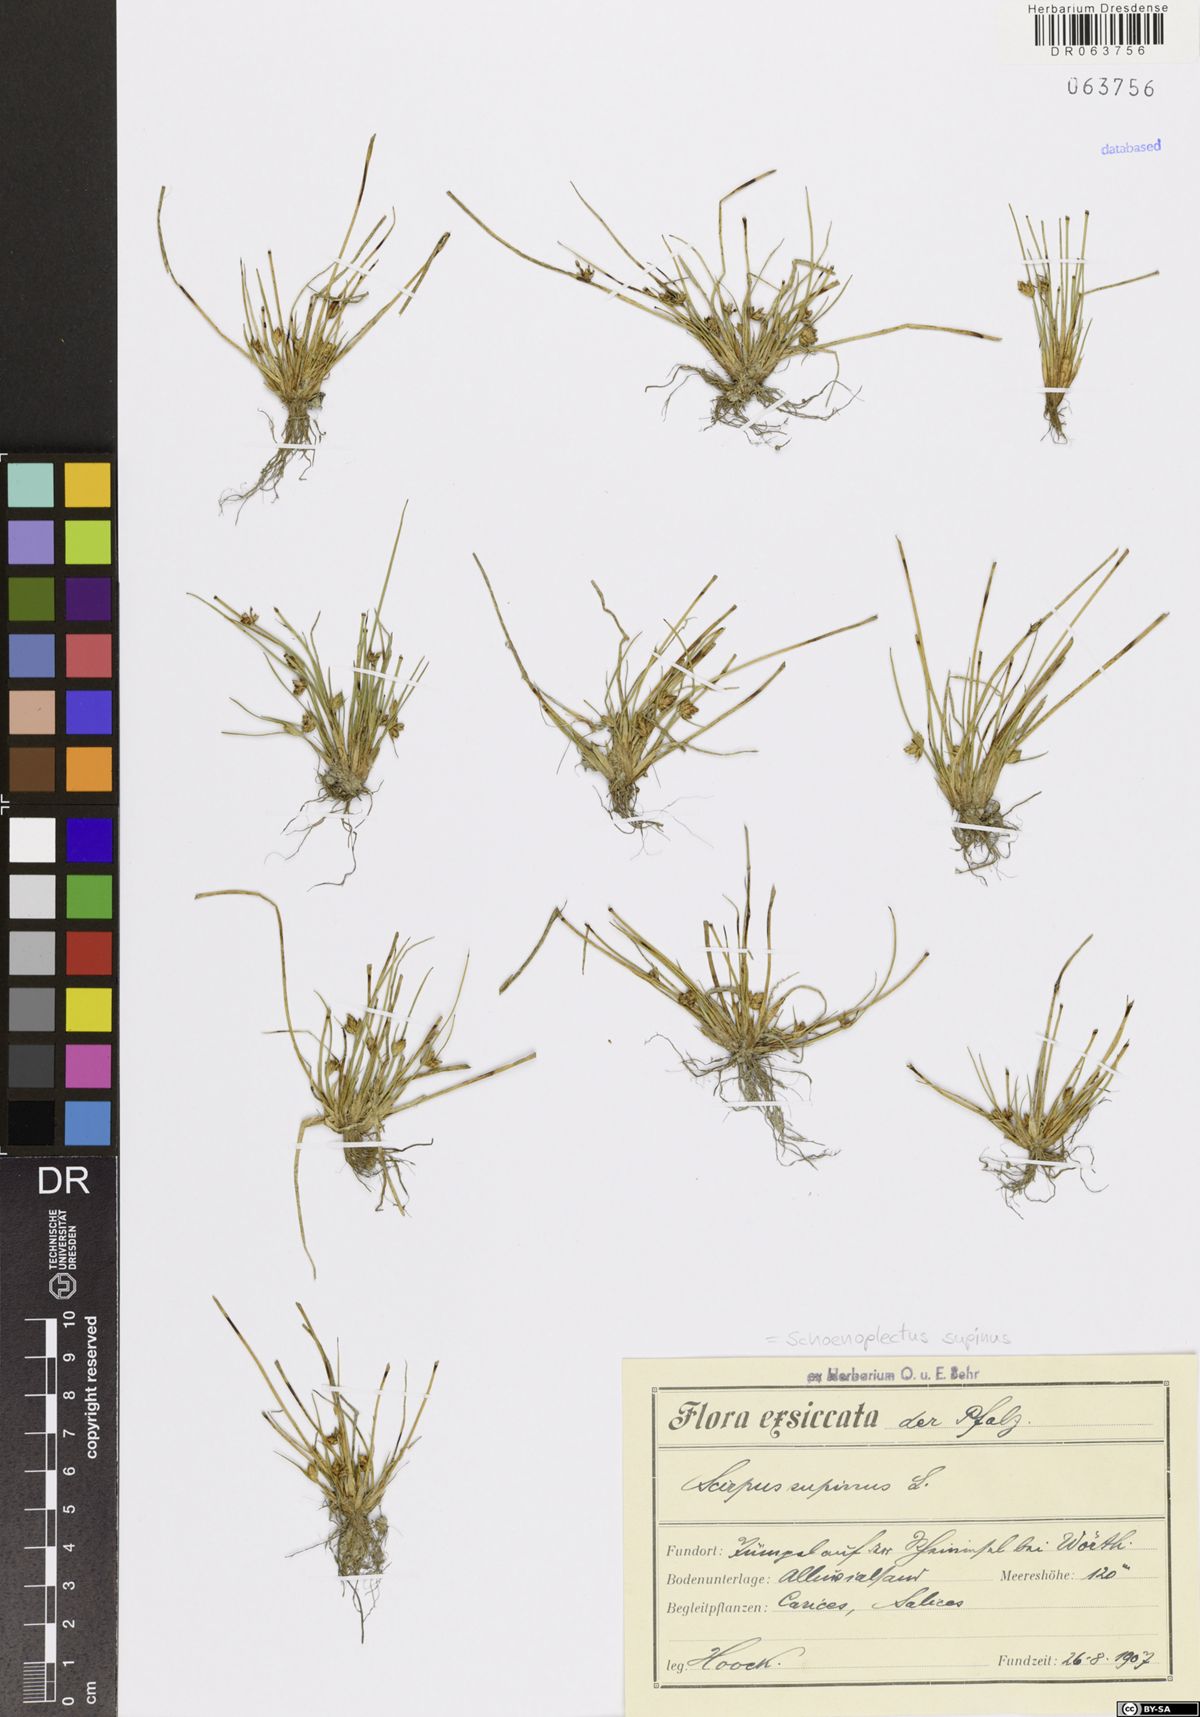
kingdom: Plantae
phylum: Tracheophyta
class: Liliopsida
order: Poales
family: Cyperaceae
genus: Schoenoplectiella
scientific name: Schoenoplectiella supina
